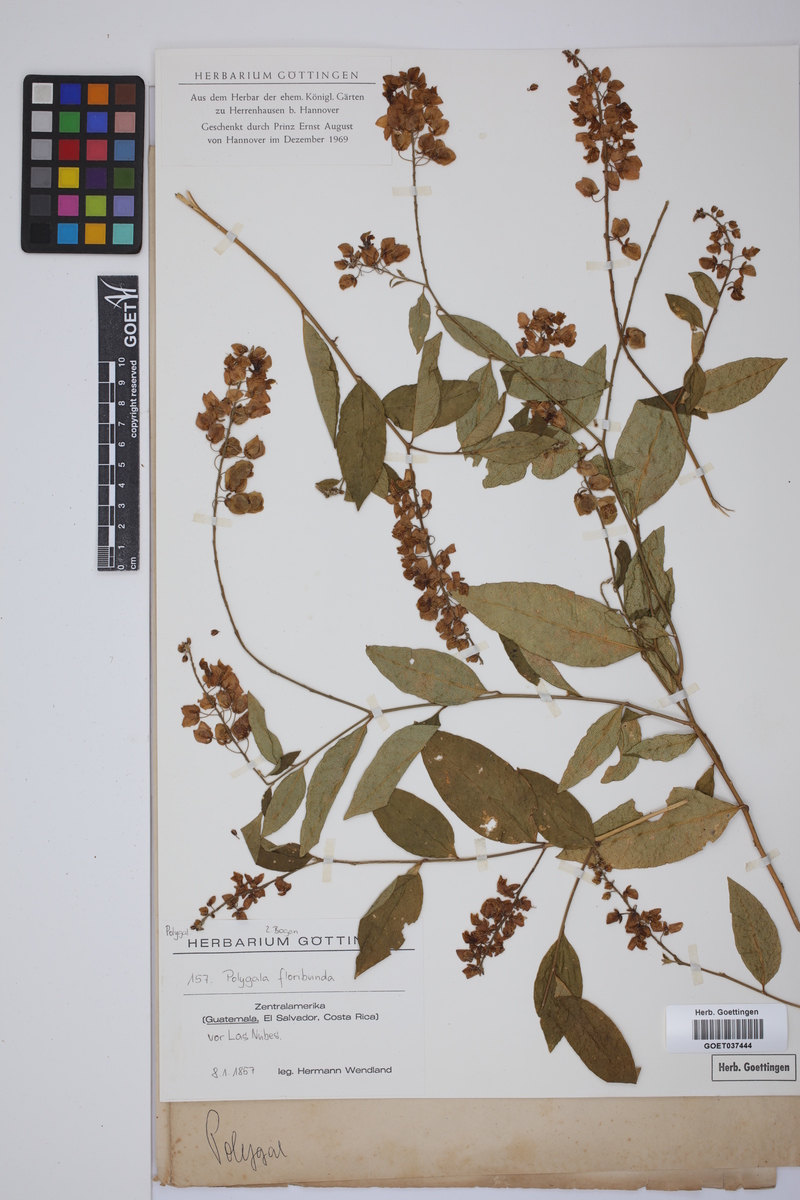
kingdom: Plantae
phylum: Tracheophyta
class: Magnoliopsida
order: Fabales
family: Polygalaceae
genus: Asemeia
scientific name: Asemeia floribunda
